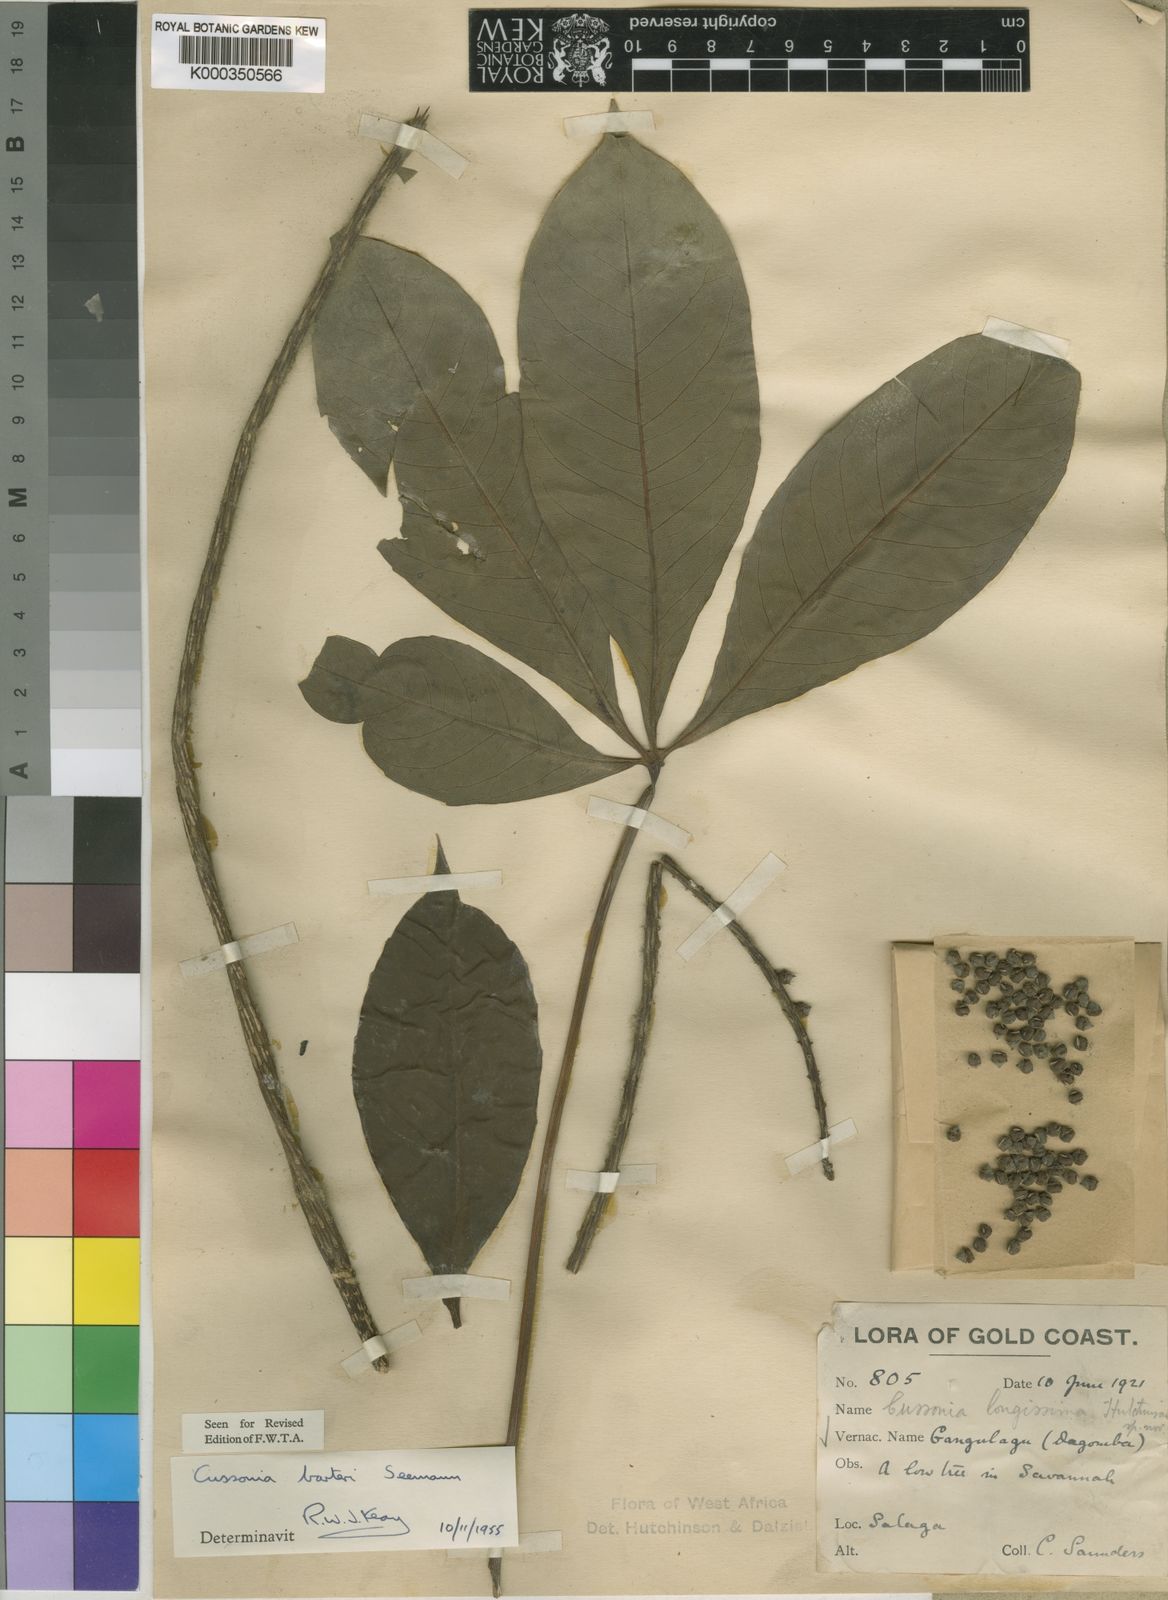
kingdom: Plantae
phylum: Tracheophyta
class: Magnoliopsida
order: Apiales
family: Araliaceae
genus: Cussonia
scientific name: Cussonia arborea
